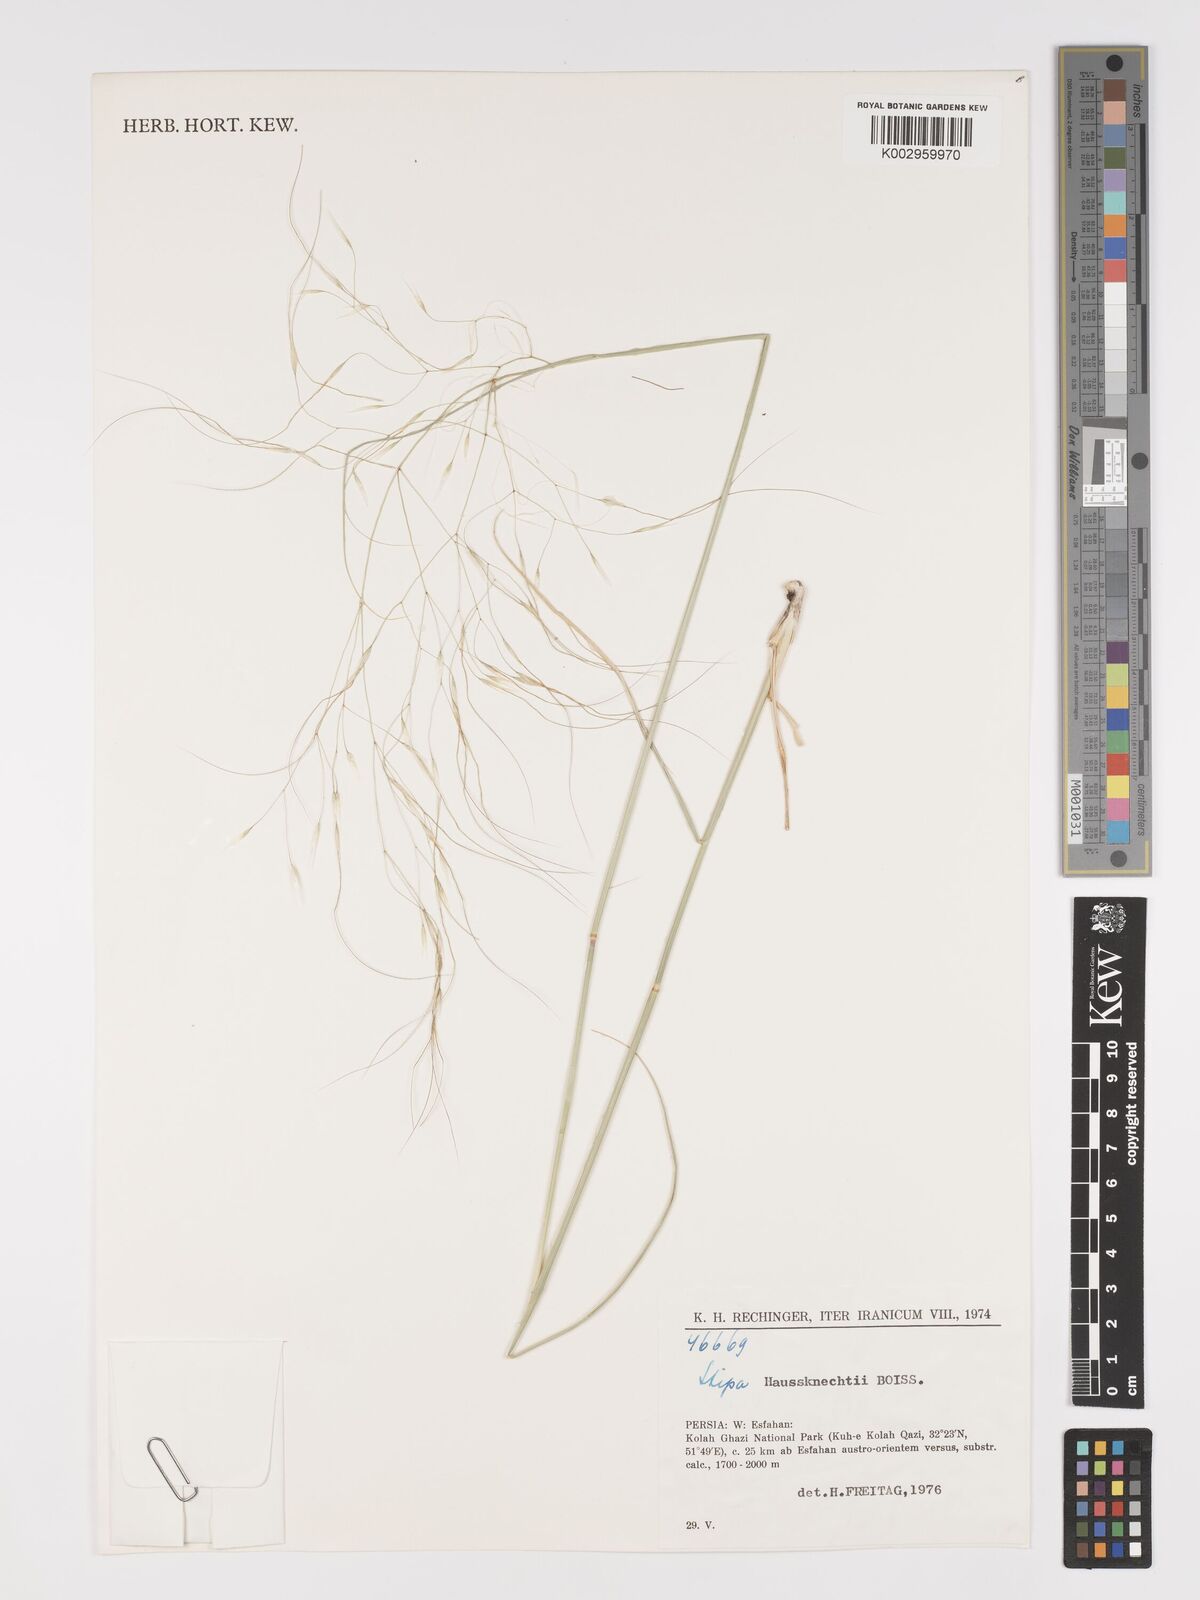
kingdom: Plantae
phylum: Tracheophyta
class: Liliopsida
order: Poales
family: Poaceae
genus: Achnatherum
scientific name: Achnatherum haussknechtii
